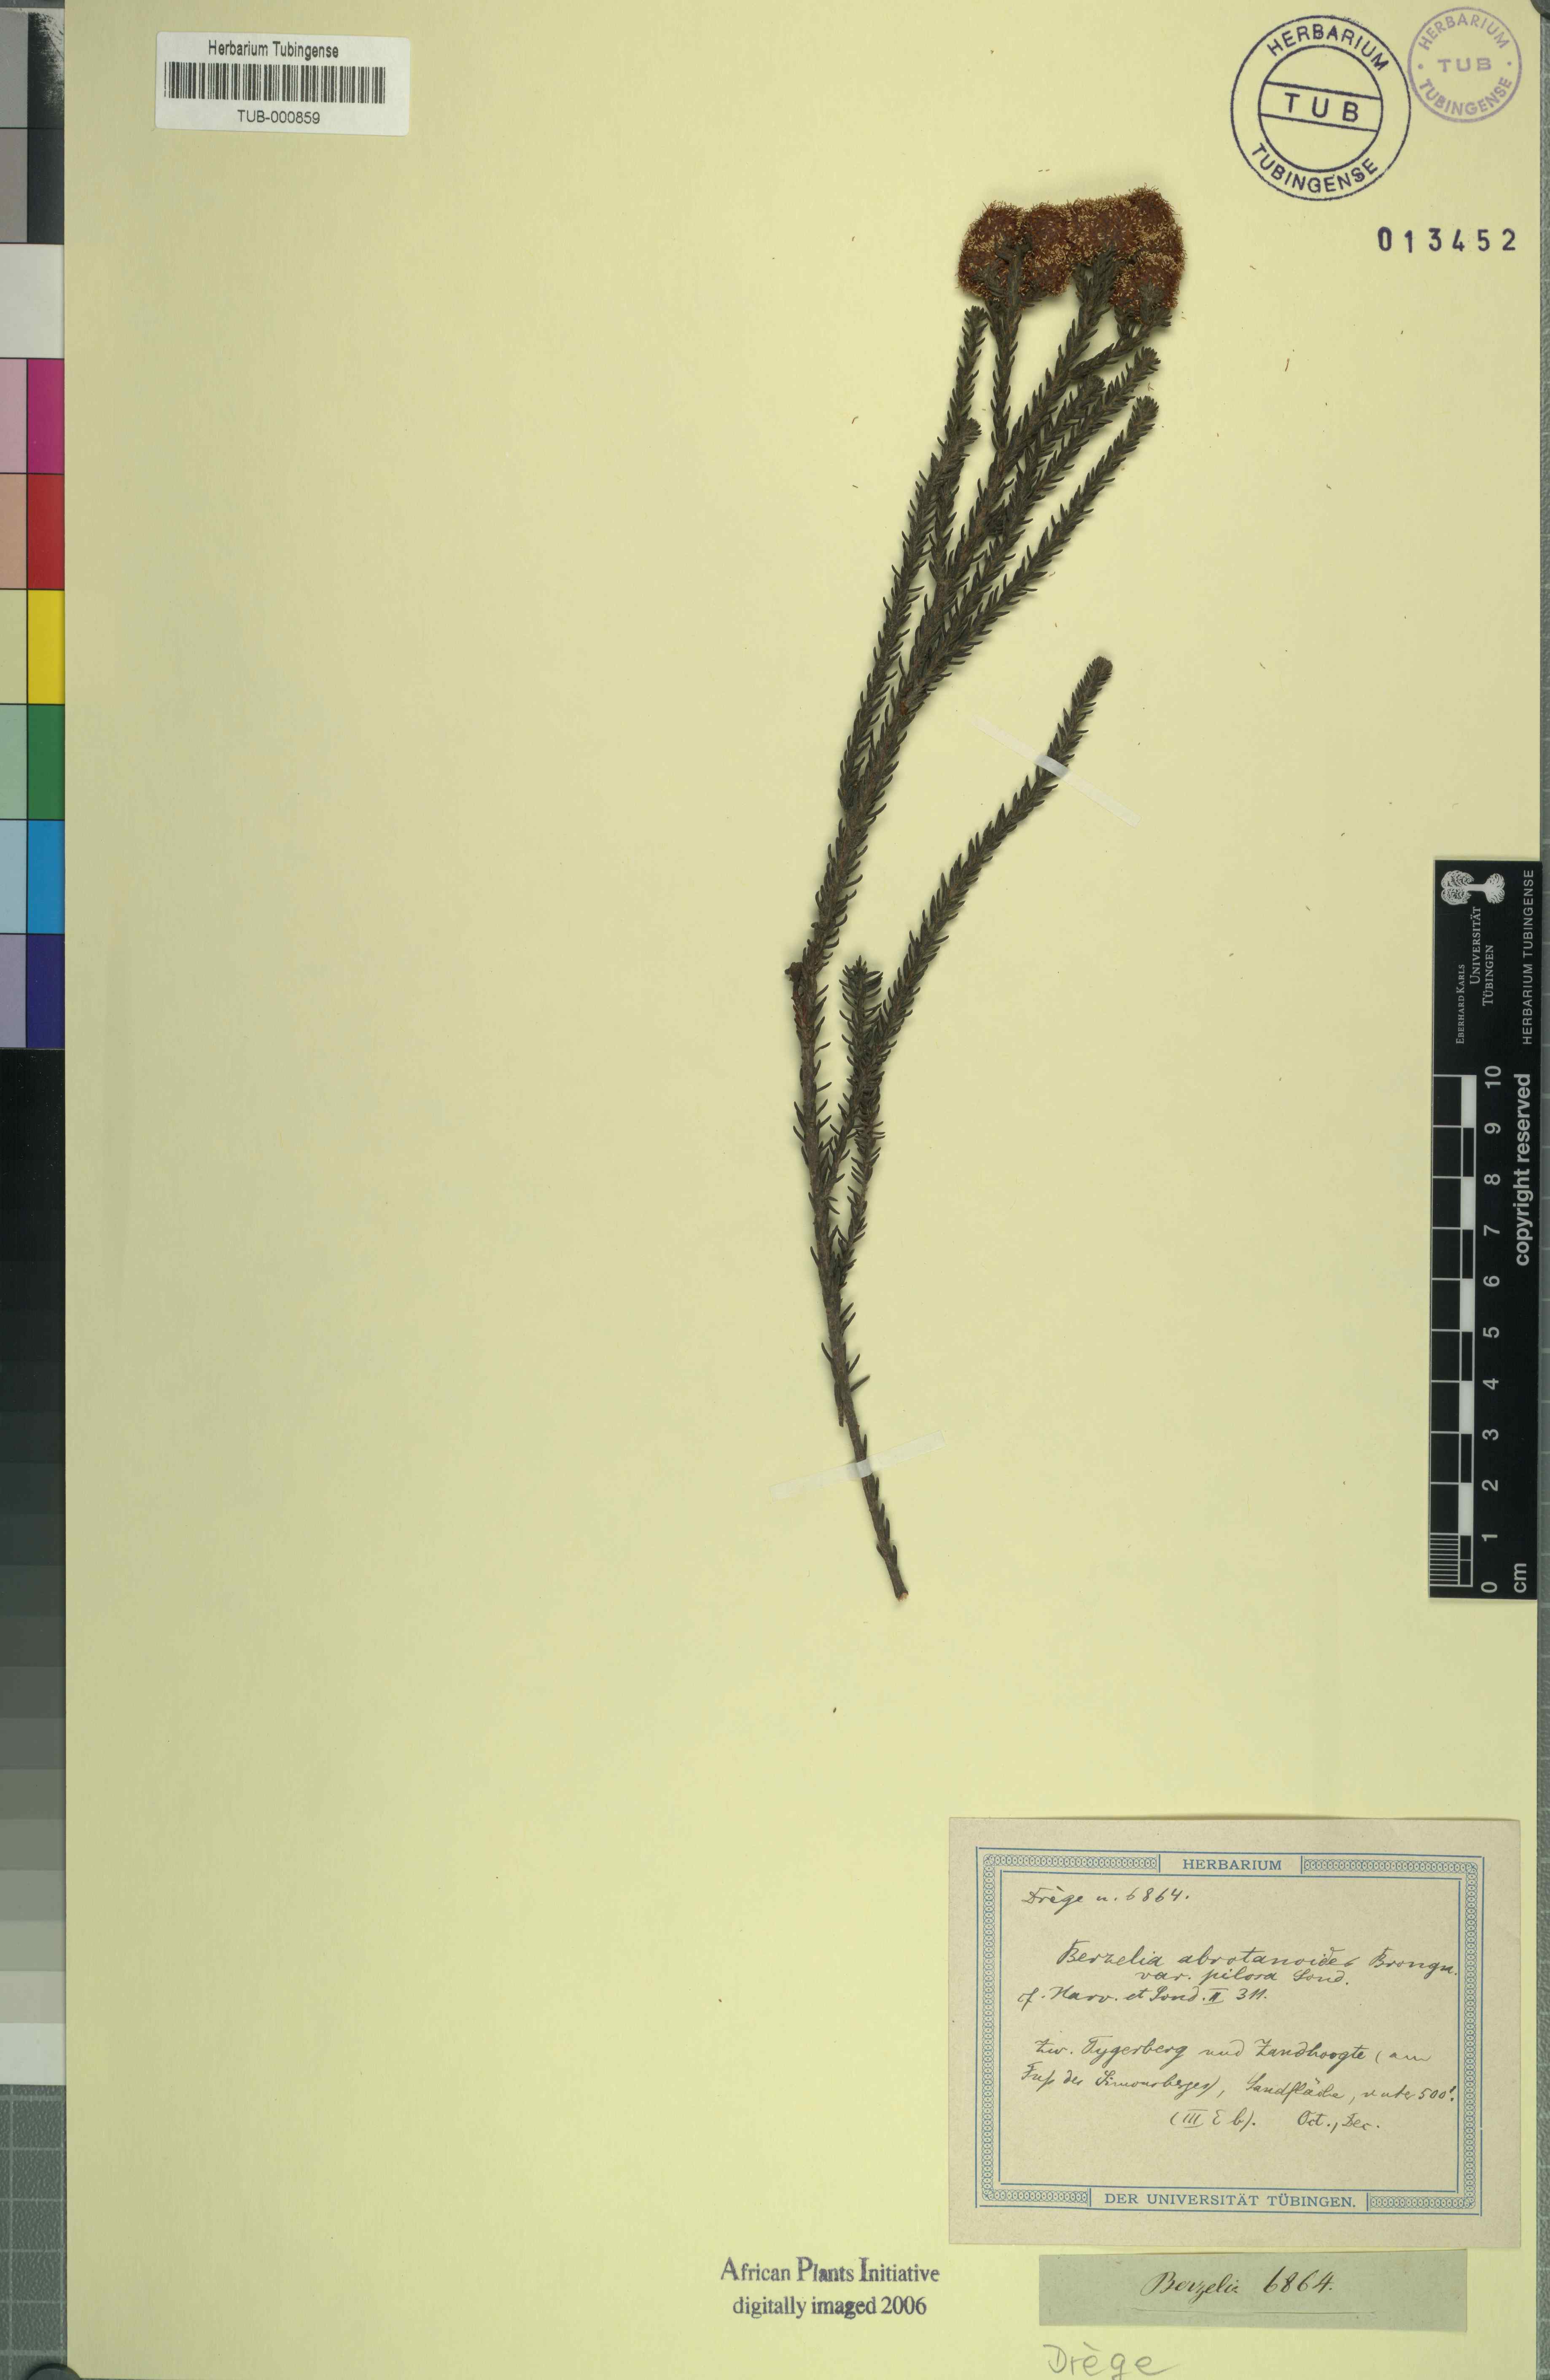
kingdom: Plantae
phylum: Tracheophyta
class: Magnoliopsida
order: Bruniales
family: Bruniaceae
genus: Berzelia
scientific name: Berzelia abrotanoides
